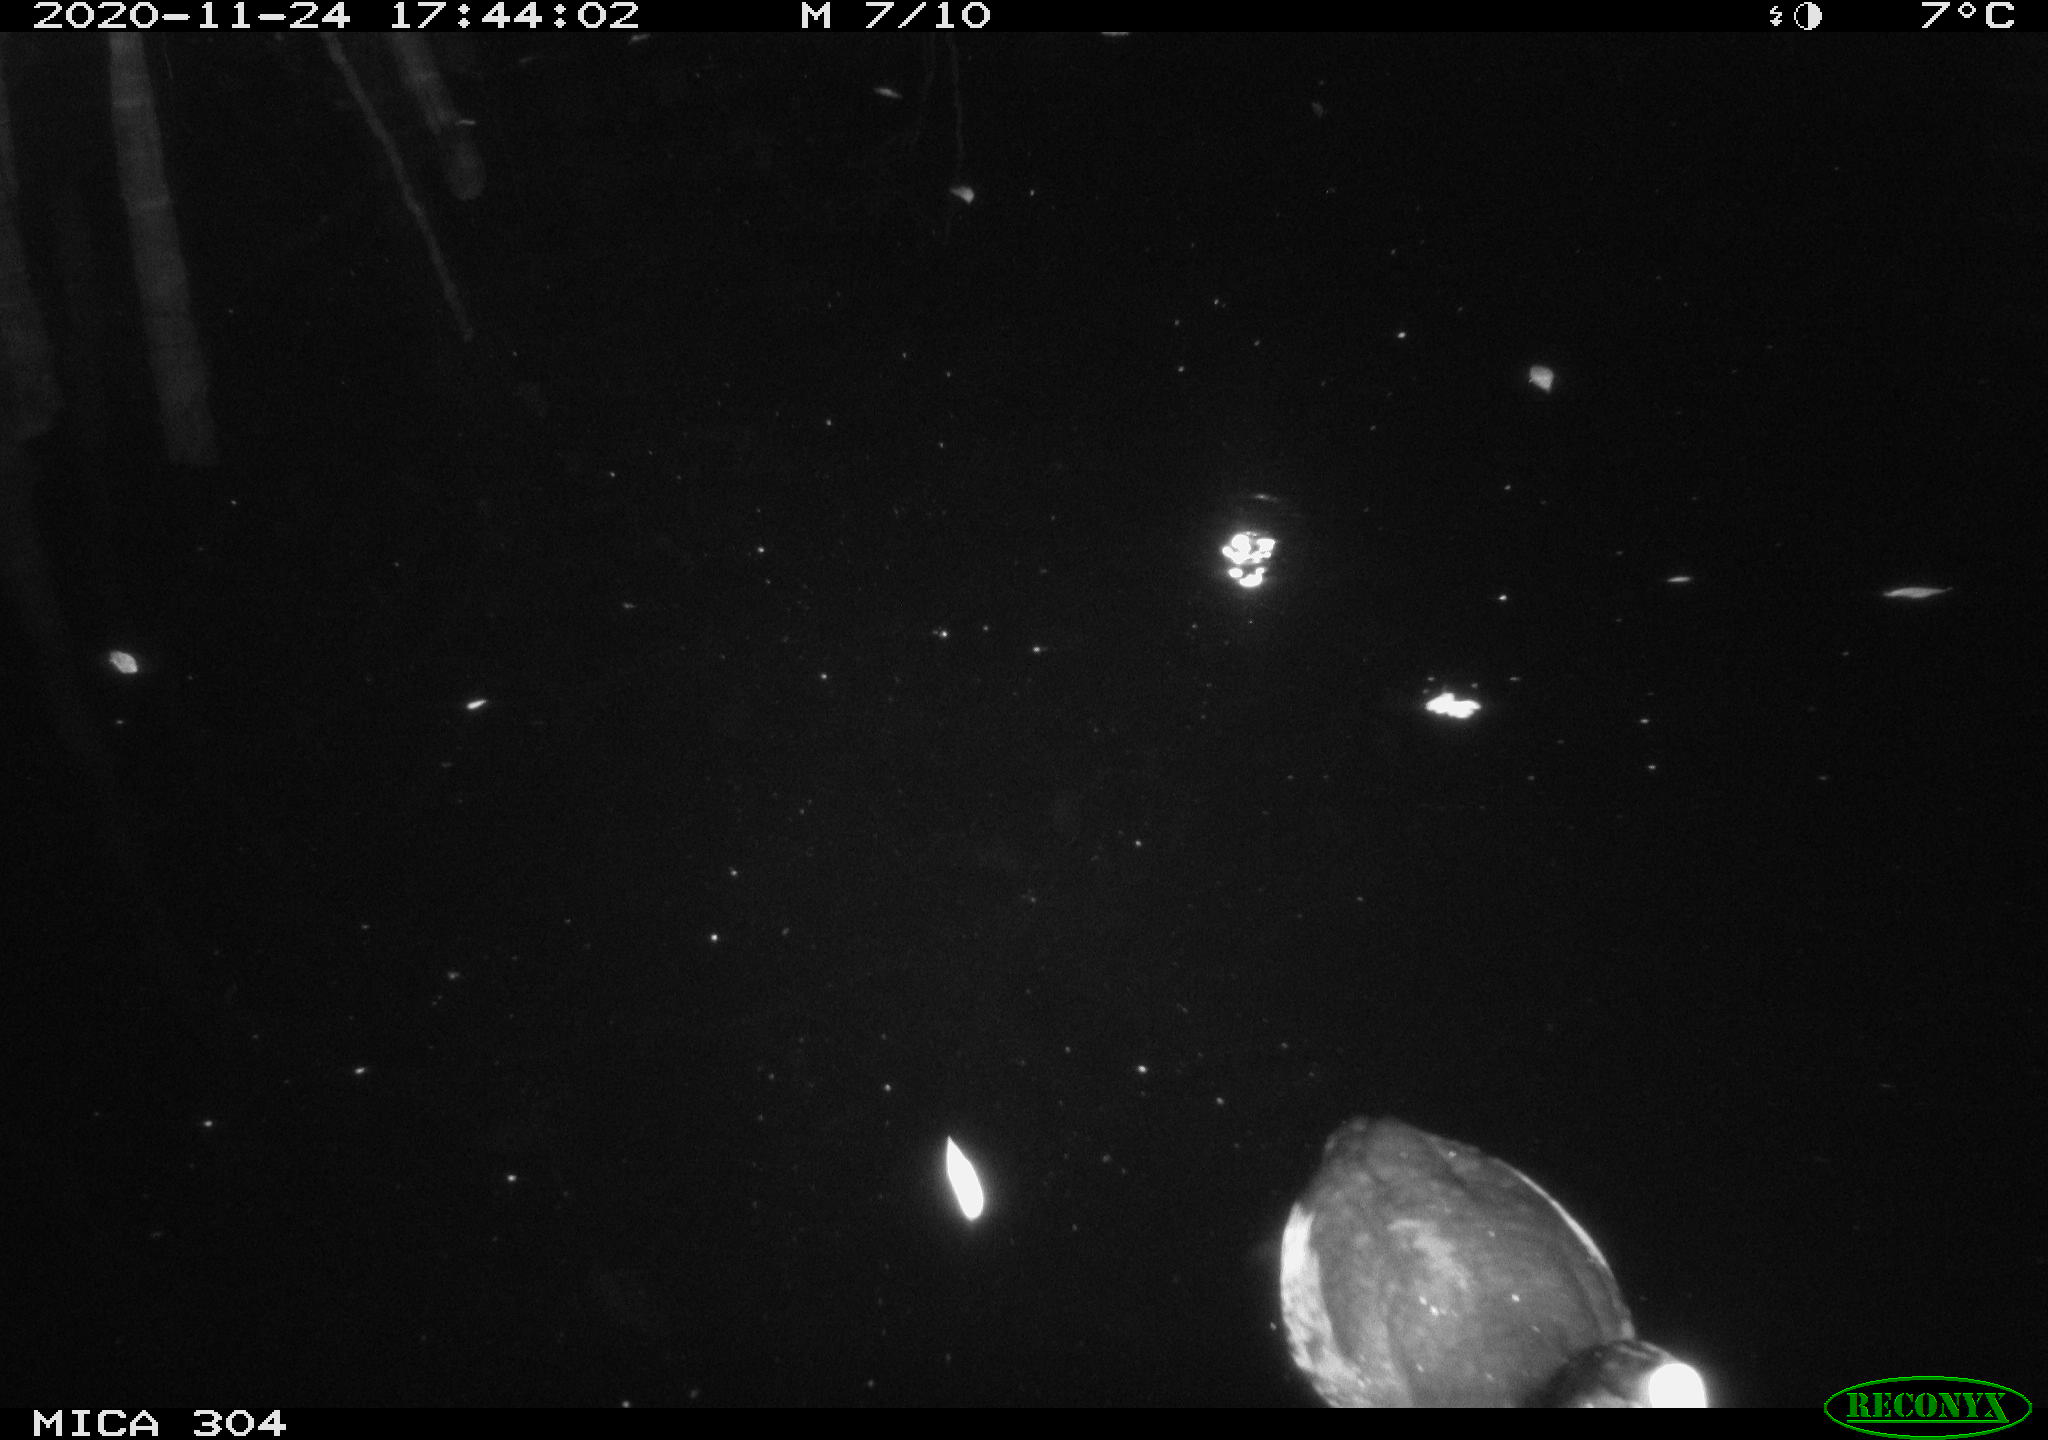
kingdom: Animalia
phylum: Chordata
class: Aves
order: Gruiformes
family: Rallidae
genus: Fulica
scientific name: Fulica atra
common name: Eurasian coot
